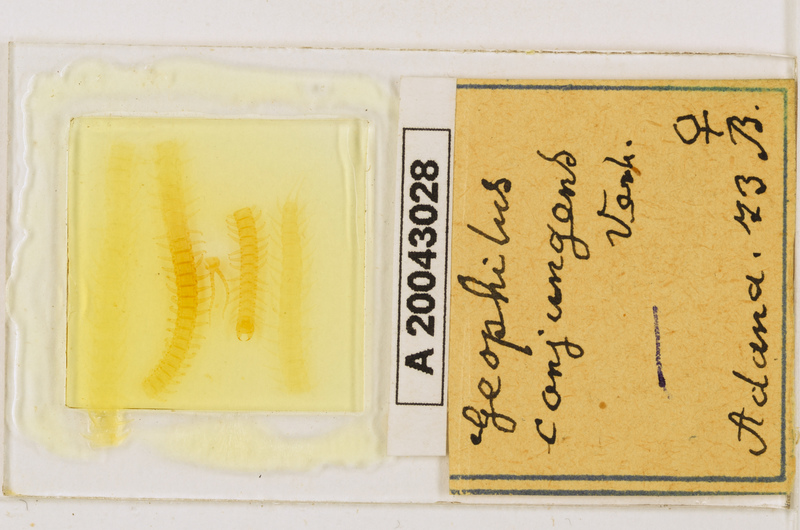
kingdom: Animalia
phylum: Arthropoda
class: Chilopoda
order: Geophilomorpha
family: Geophilidae
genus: Geophilus
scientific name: Geophilus conjungens
